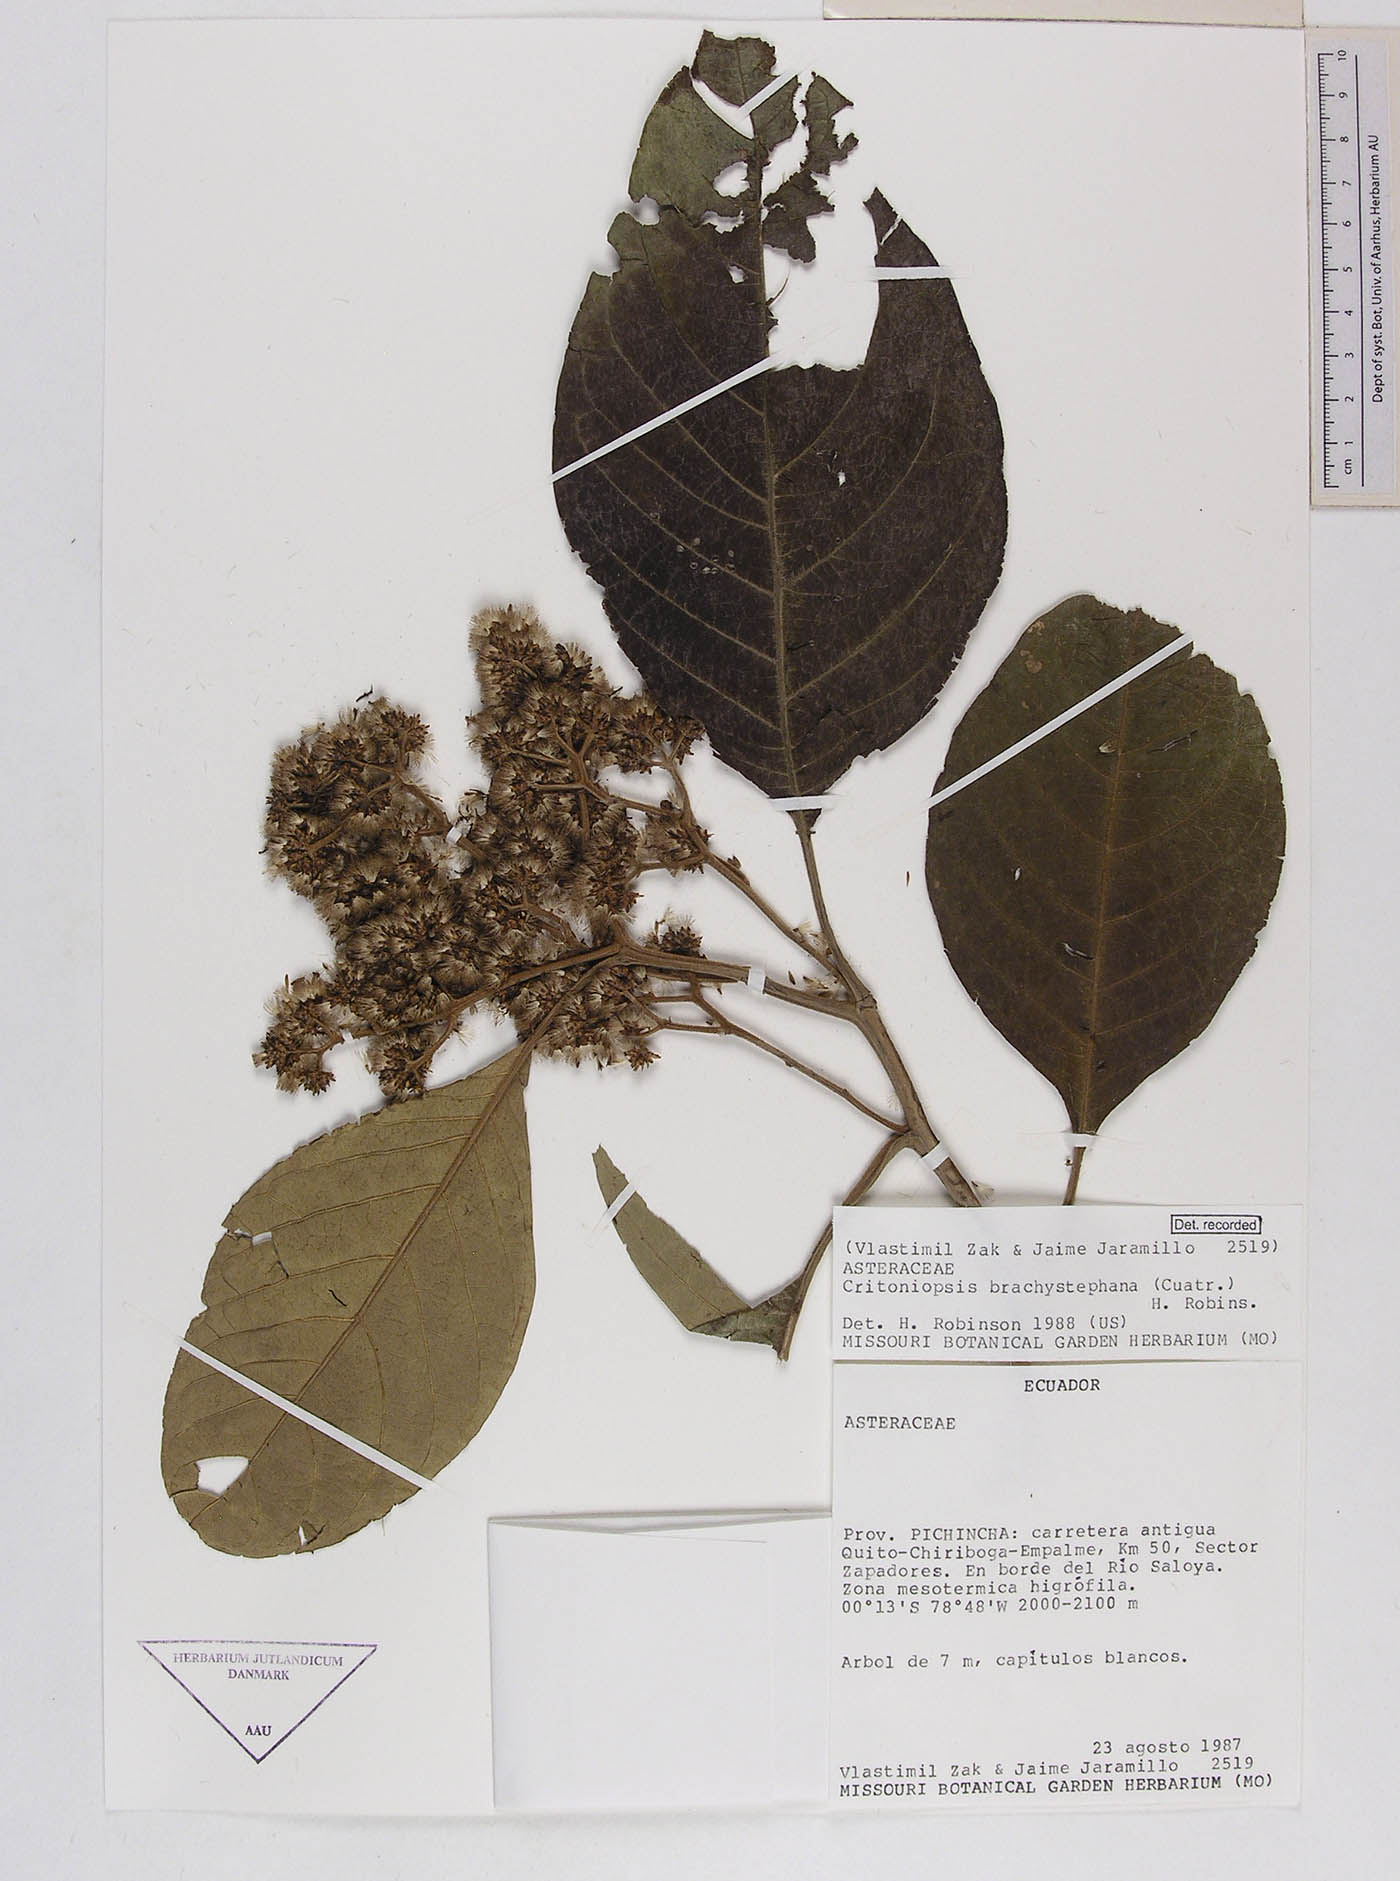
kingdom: Plantae
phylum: Tracheophyta
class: Magnoliopsida
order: Asterales
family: Asteraceae
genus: Critoniopsis
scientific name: Critoniopsis occidentalis
